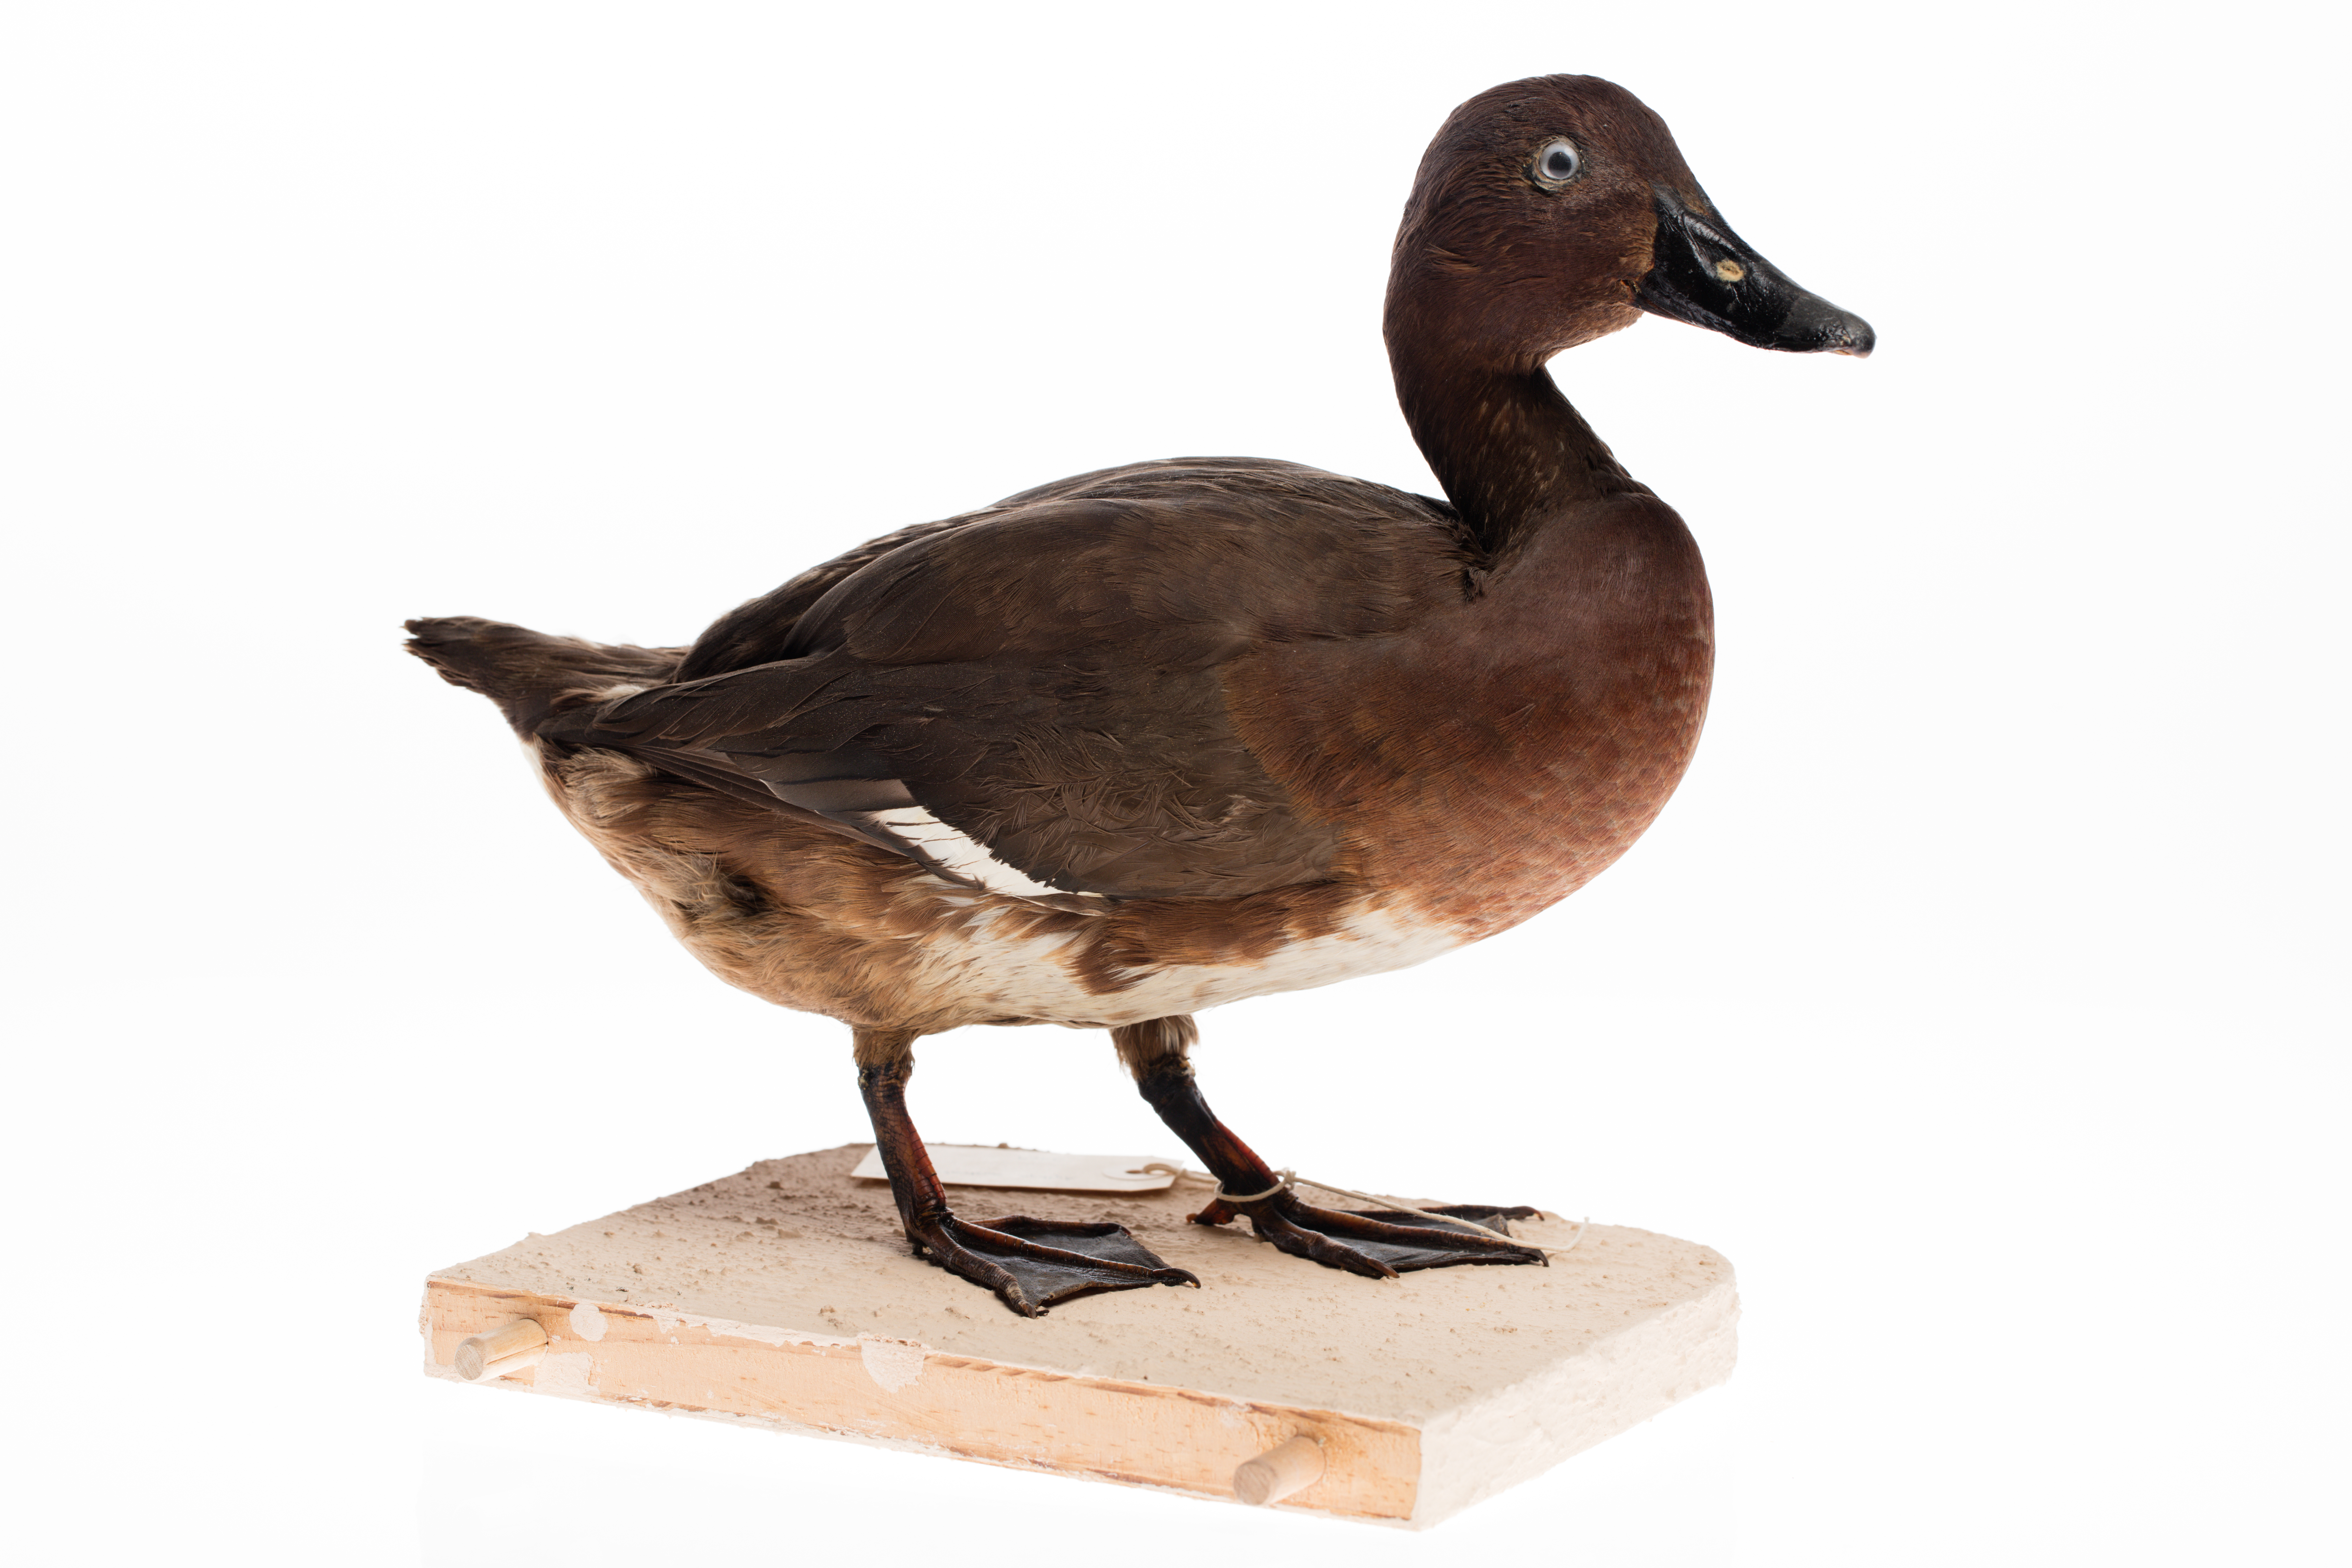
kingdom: Animalia
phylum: Chordata
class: Aves
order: Anseriformes
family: Anatidae
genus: Aythya
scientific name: Aythya australis
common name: Hardhead
